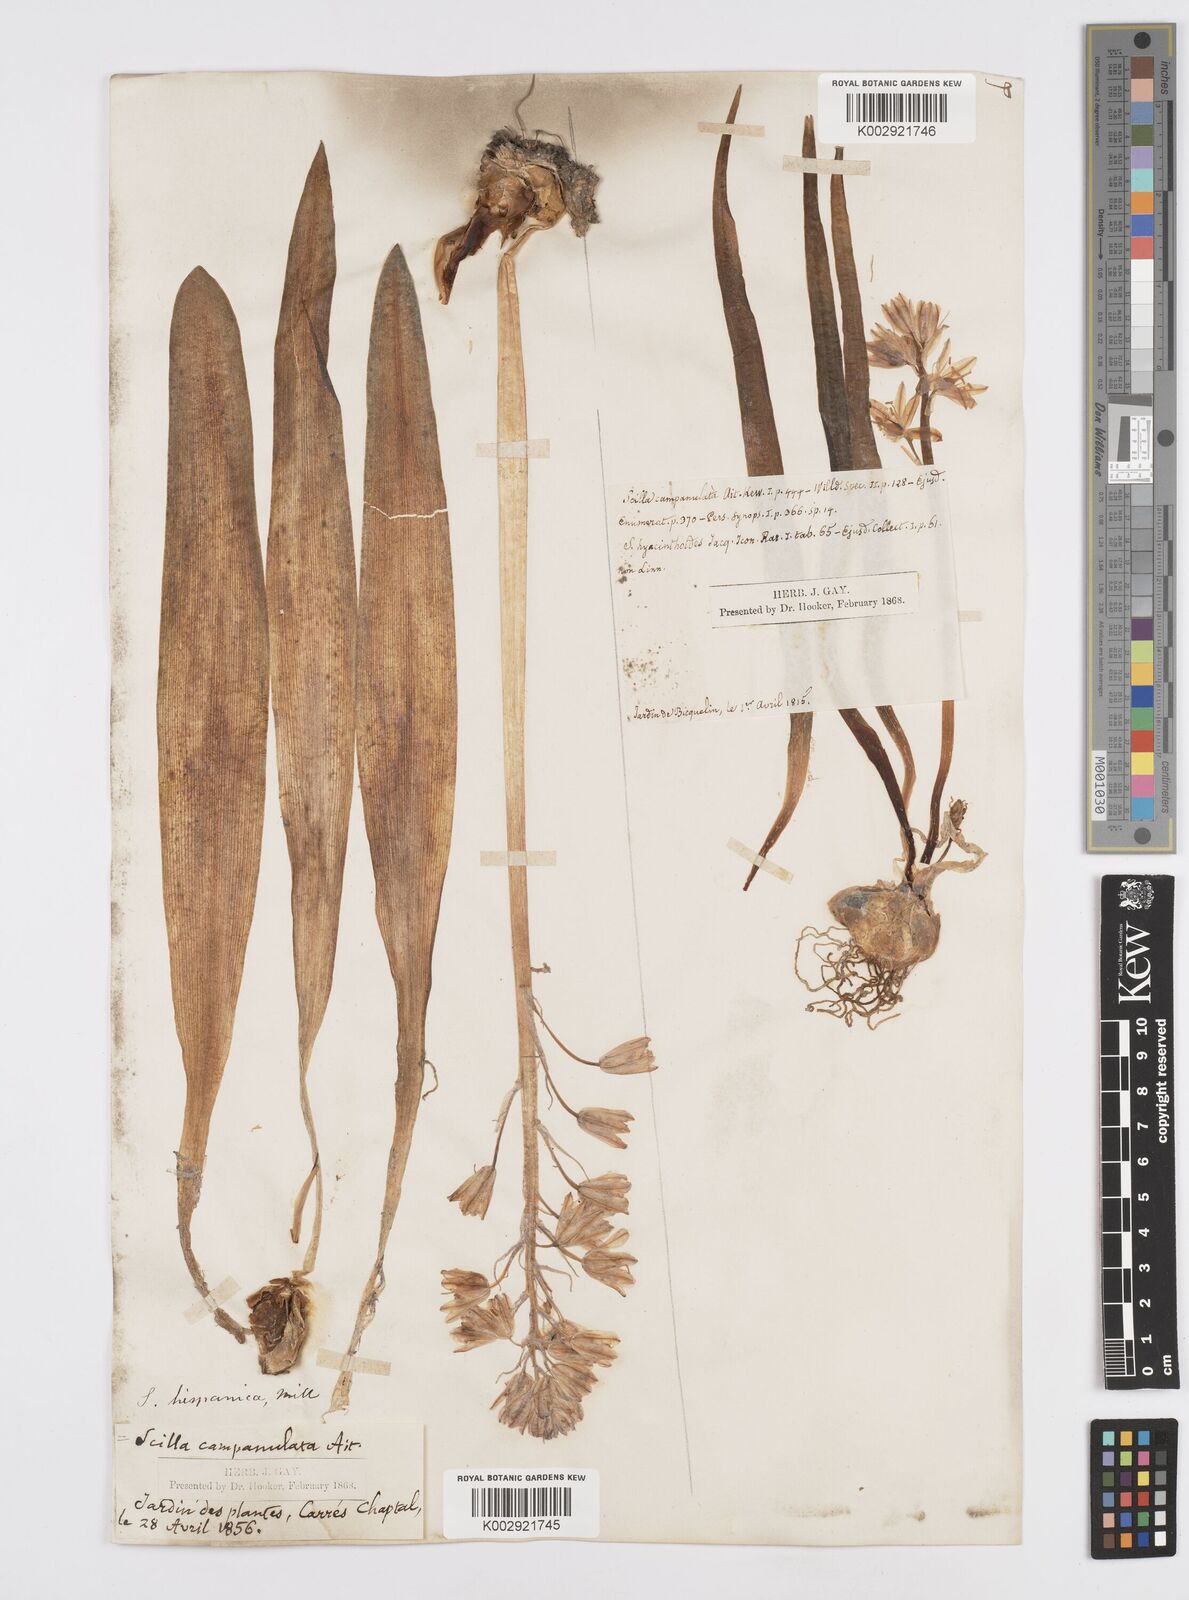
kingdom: Plantae
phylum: Tracheophyta
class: Liliopsida
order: Asparagales
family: Asparagaceae
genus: Hyacinthoides
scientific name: Hyacinthoides hispanica
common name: Spanish bluebell
